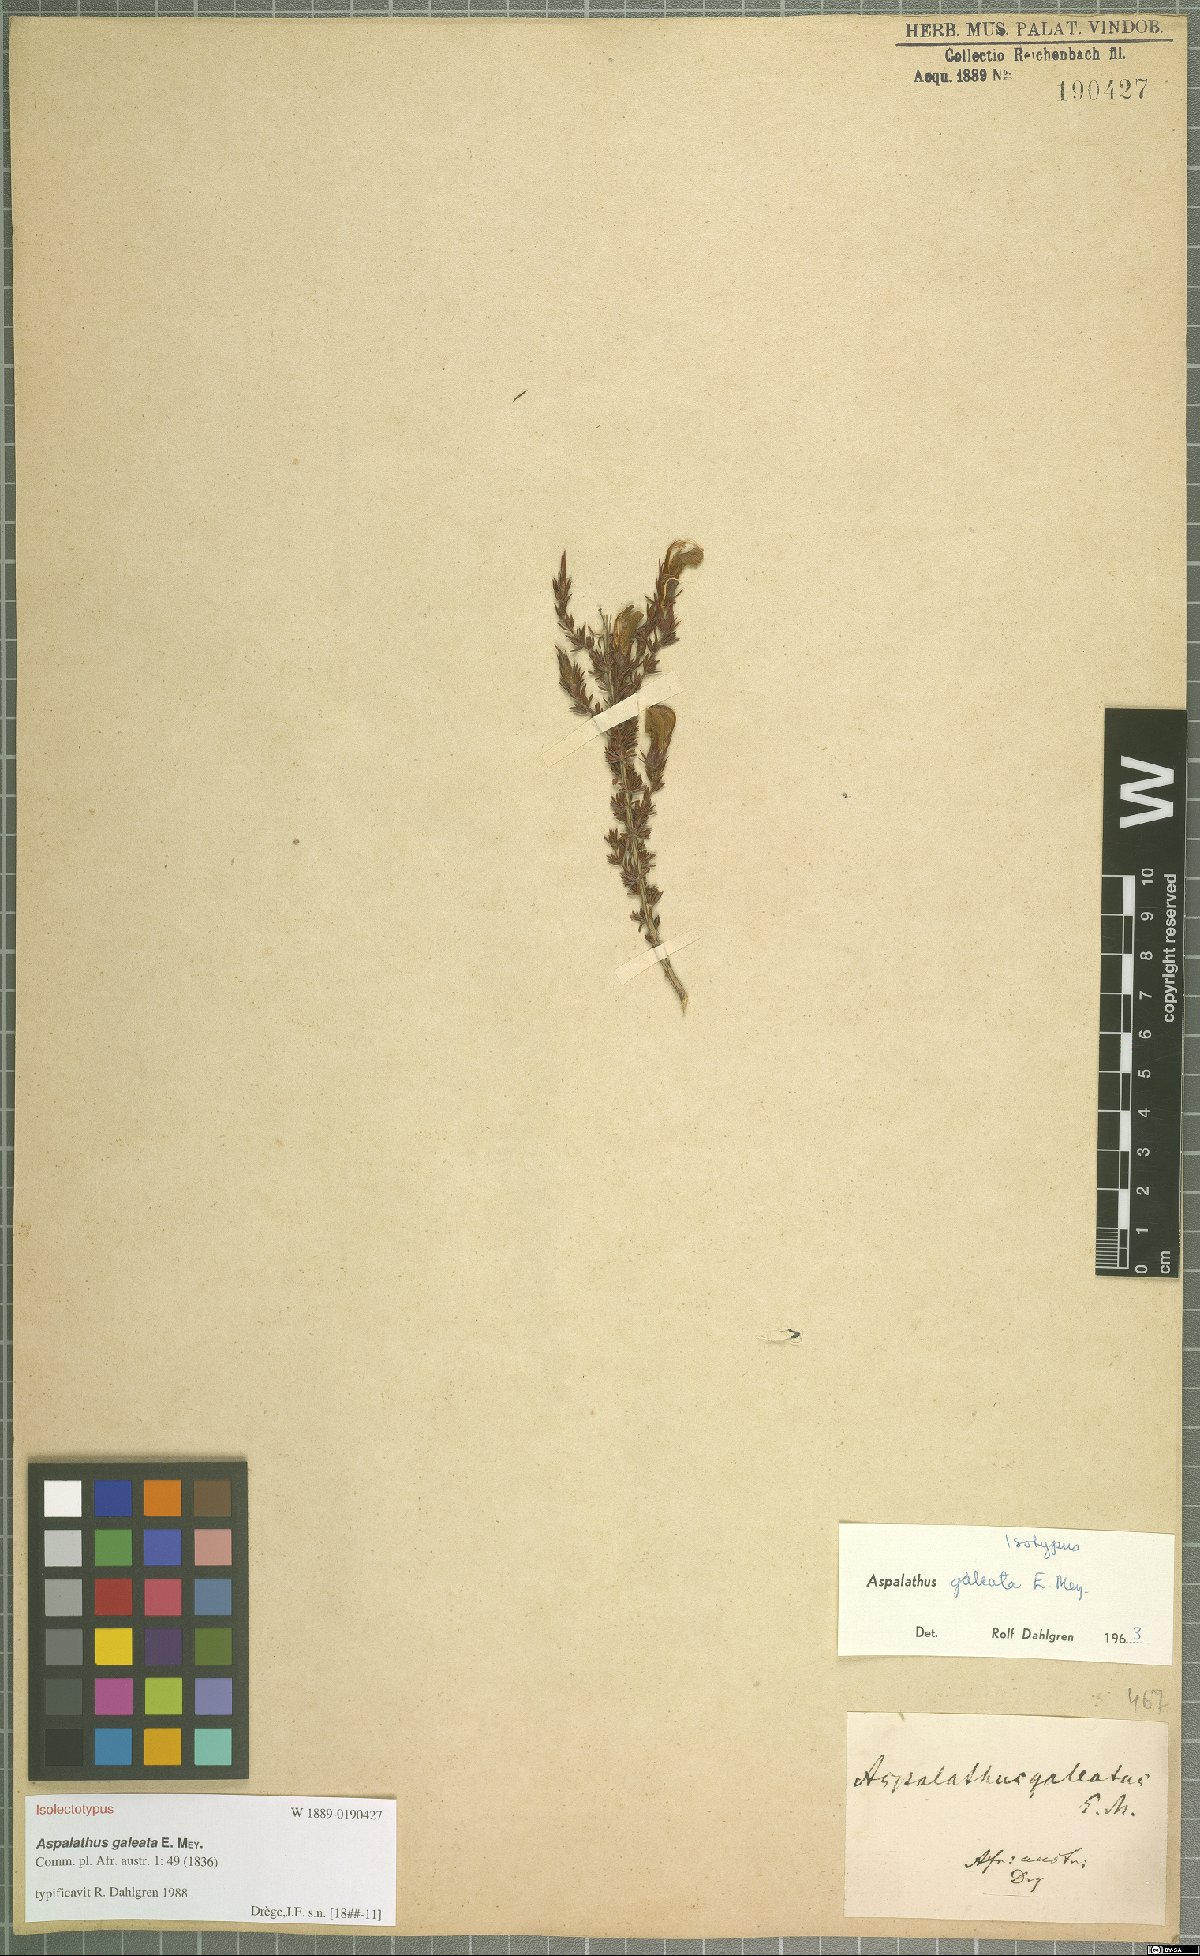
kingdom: Plantae
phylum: Tracheophyta
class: Magnoliopsida
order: Fabales
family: Fabaceae
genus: Aspalathus
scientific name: Aspalathus galeata
